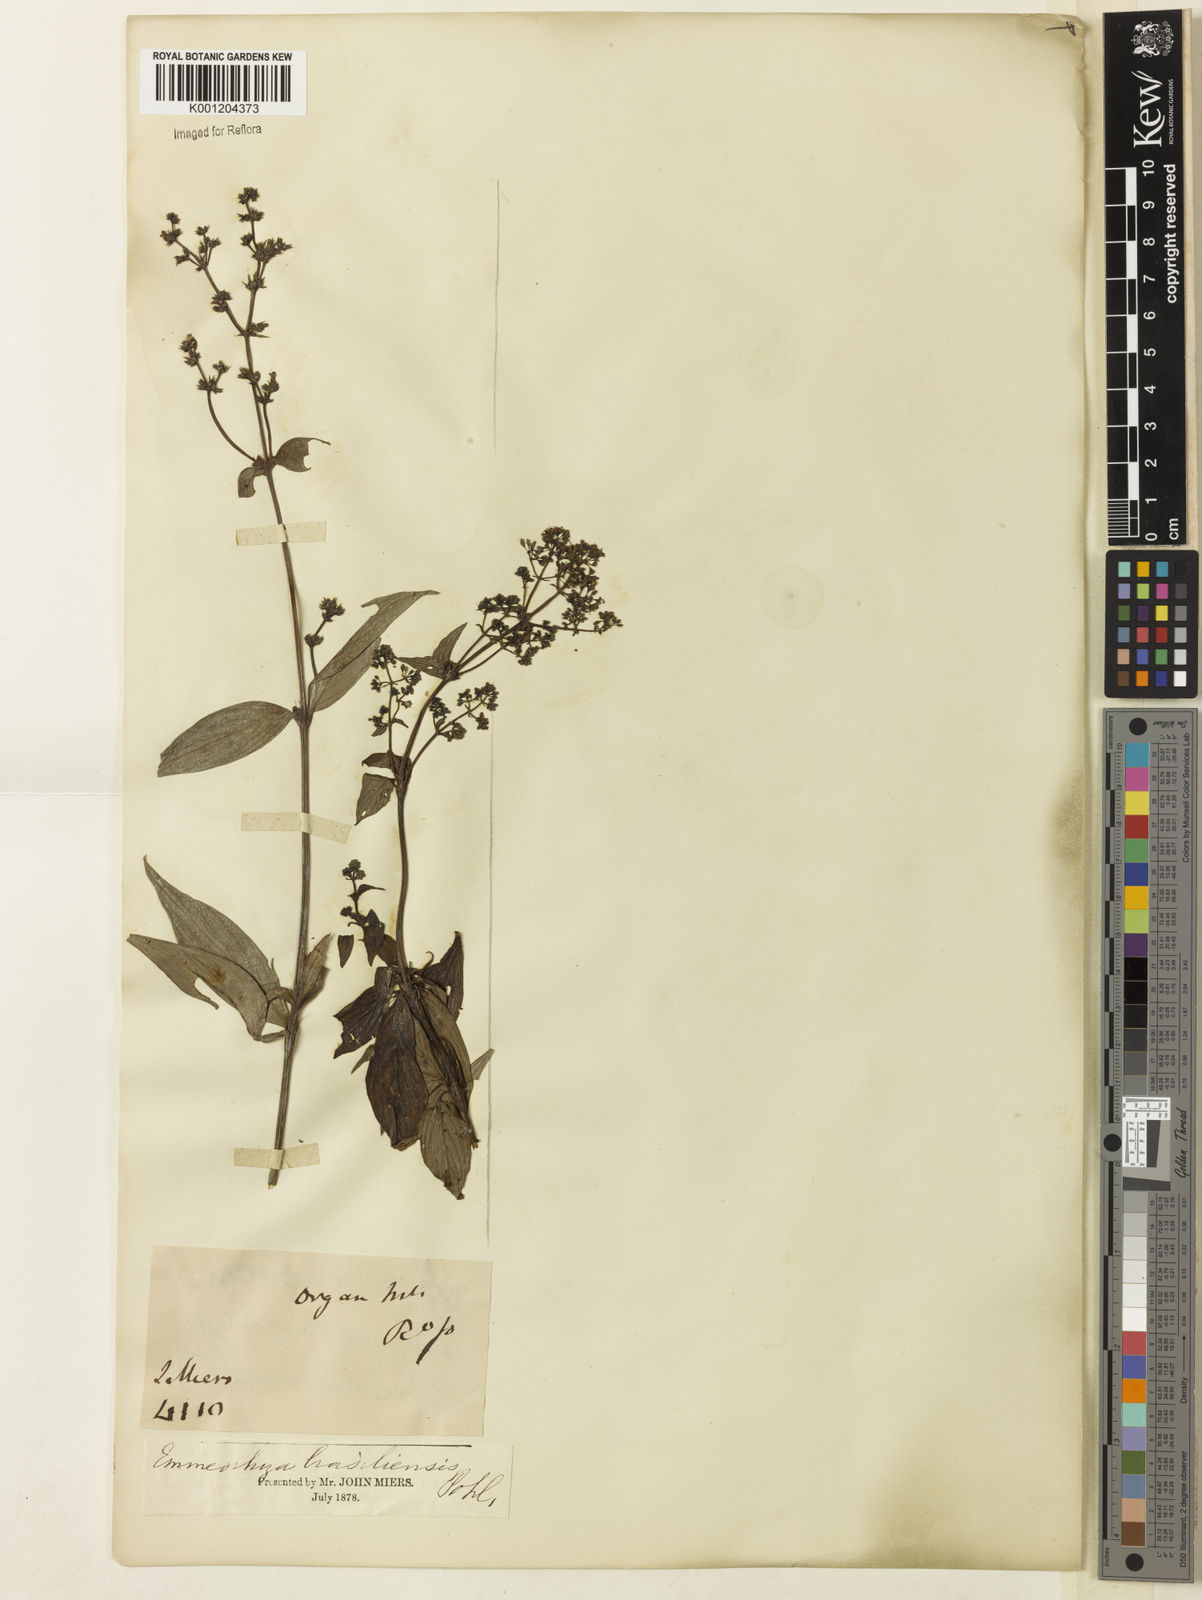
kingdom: Plantae
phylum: Tracheophyta
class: Magnoliopsida
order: Gentianales
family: Rubiaceae
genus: Emmeorhiza
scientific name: Emmeorhiza umbellata
